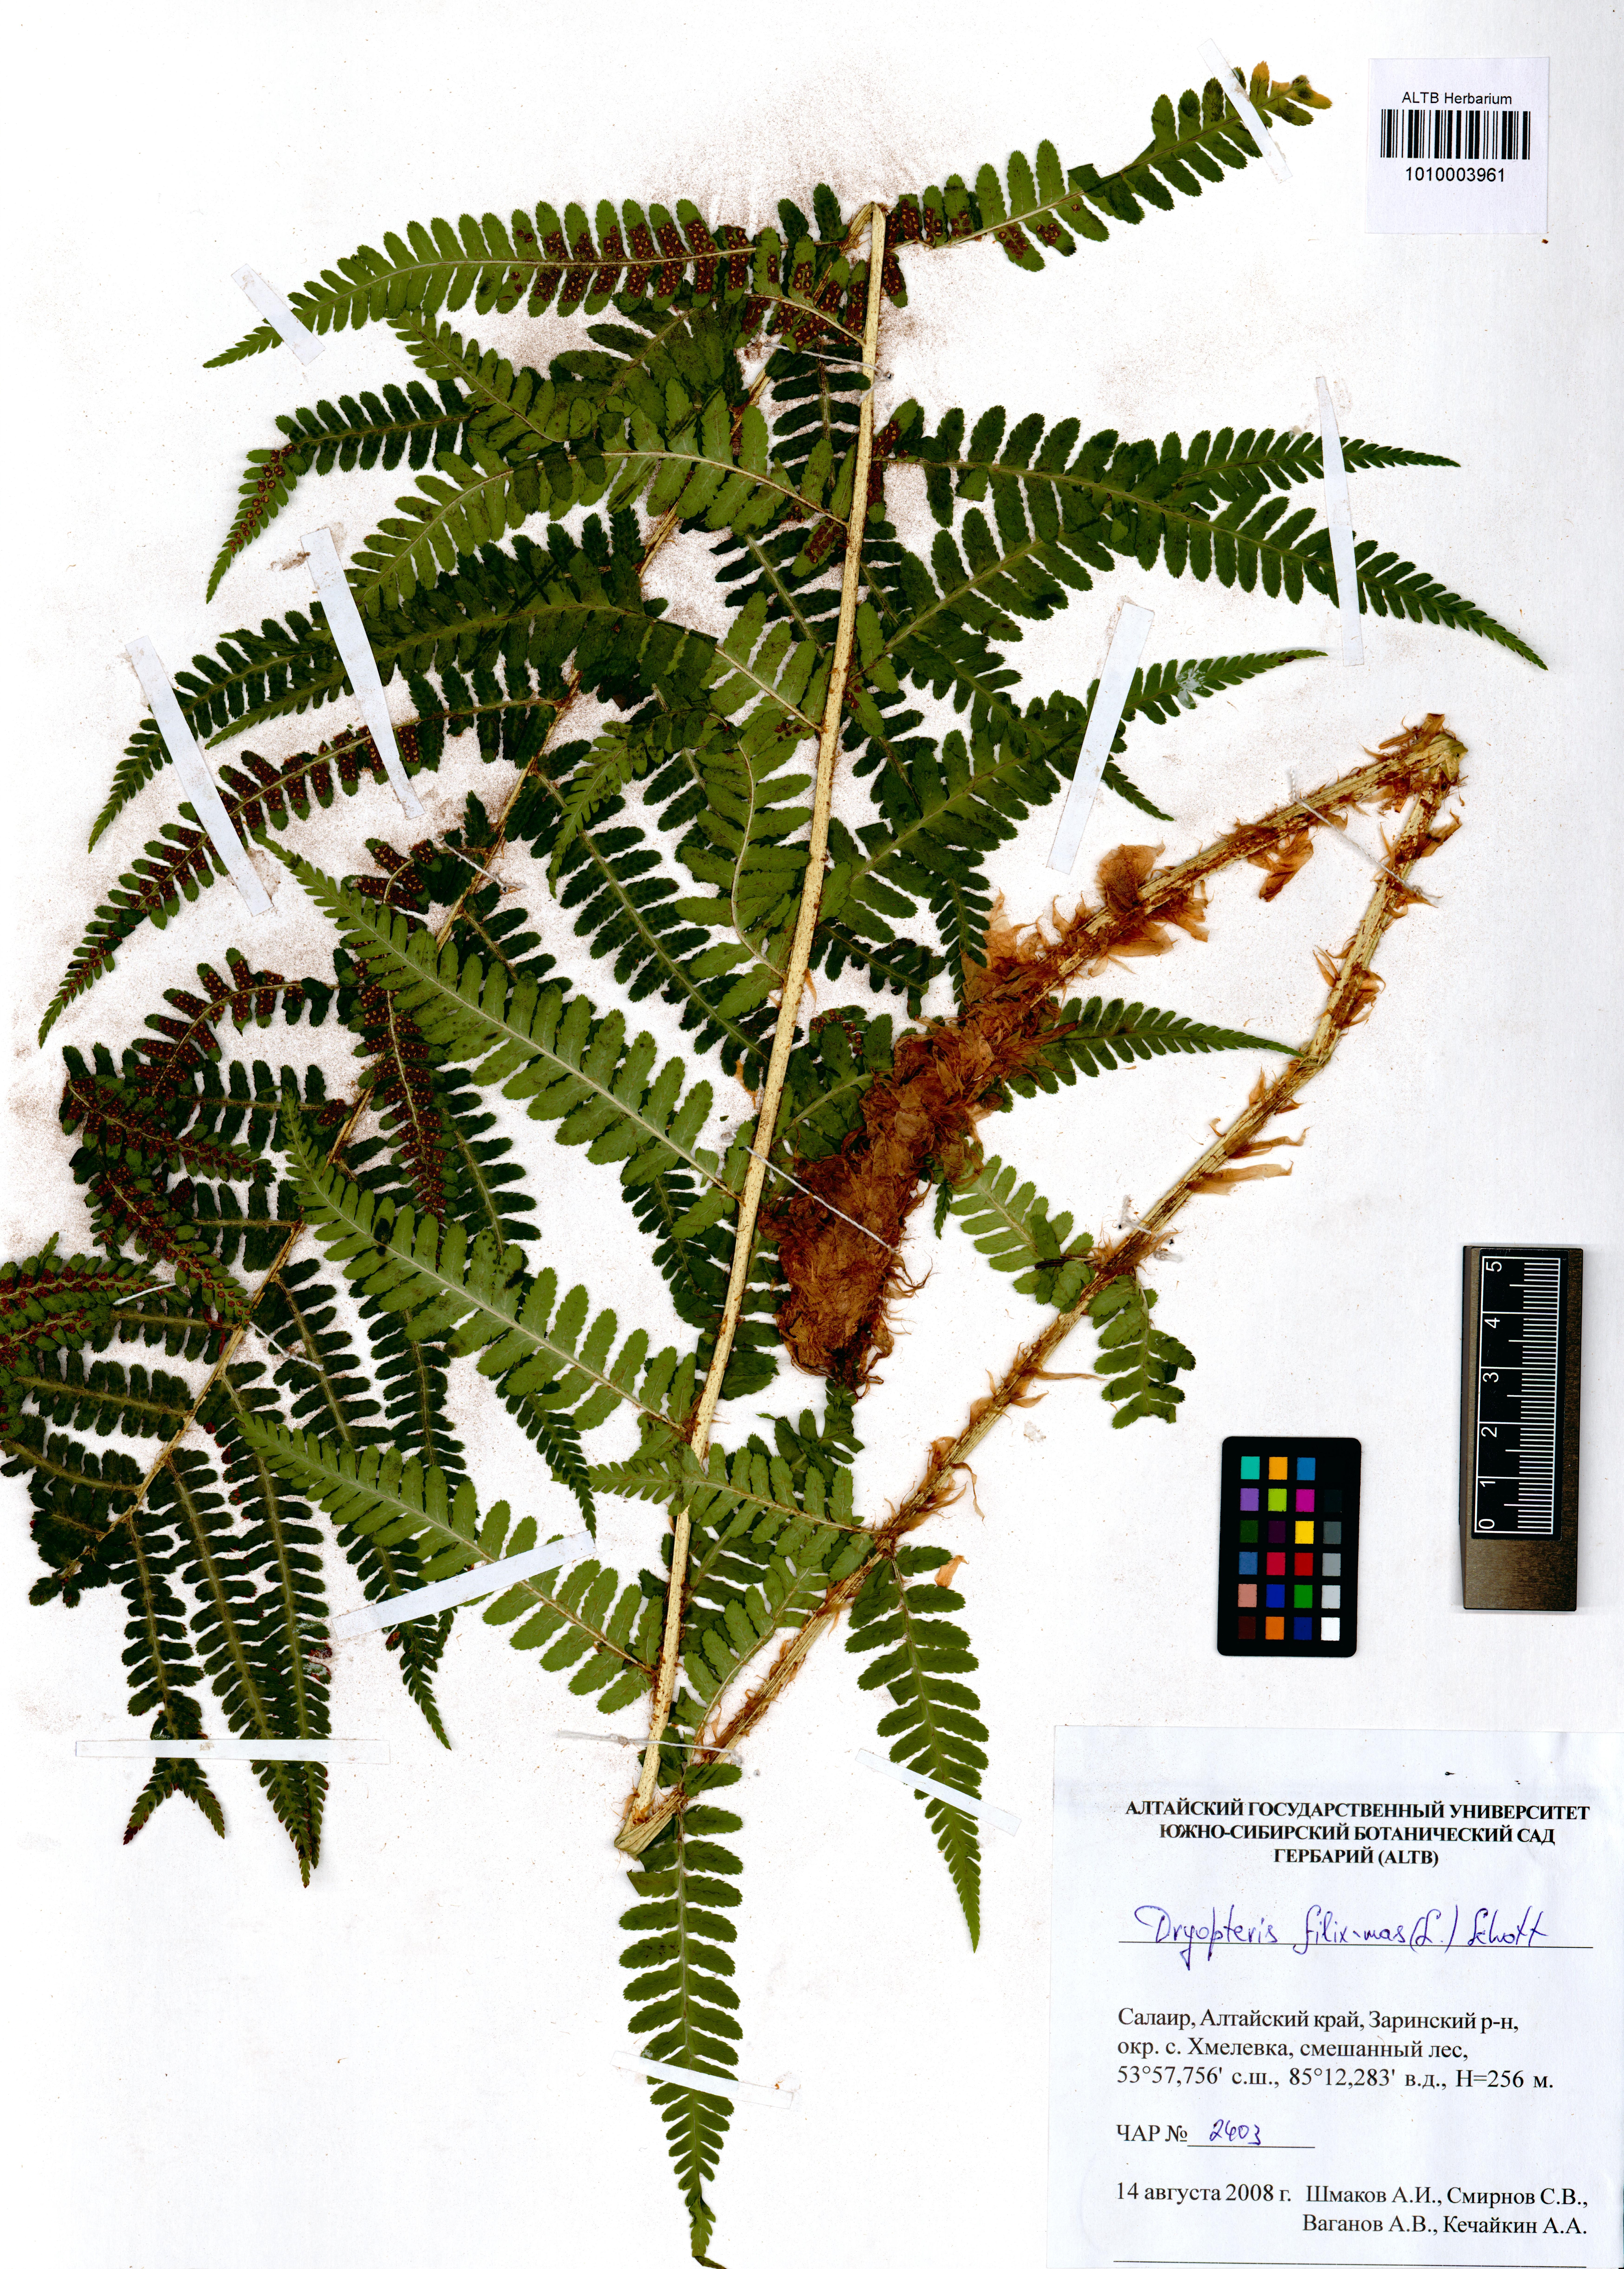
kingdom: Plantae
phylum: Tracheophyta
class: Polypodiopsida
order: Polypodiales
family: Dryopteridaceae
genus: Dryopteris
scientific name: Dryopteris filix-mas
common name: Male fern
